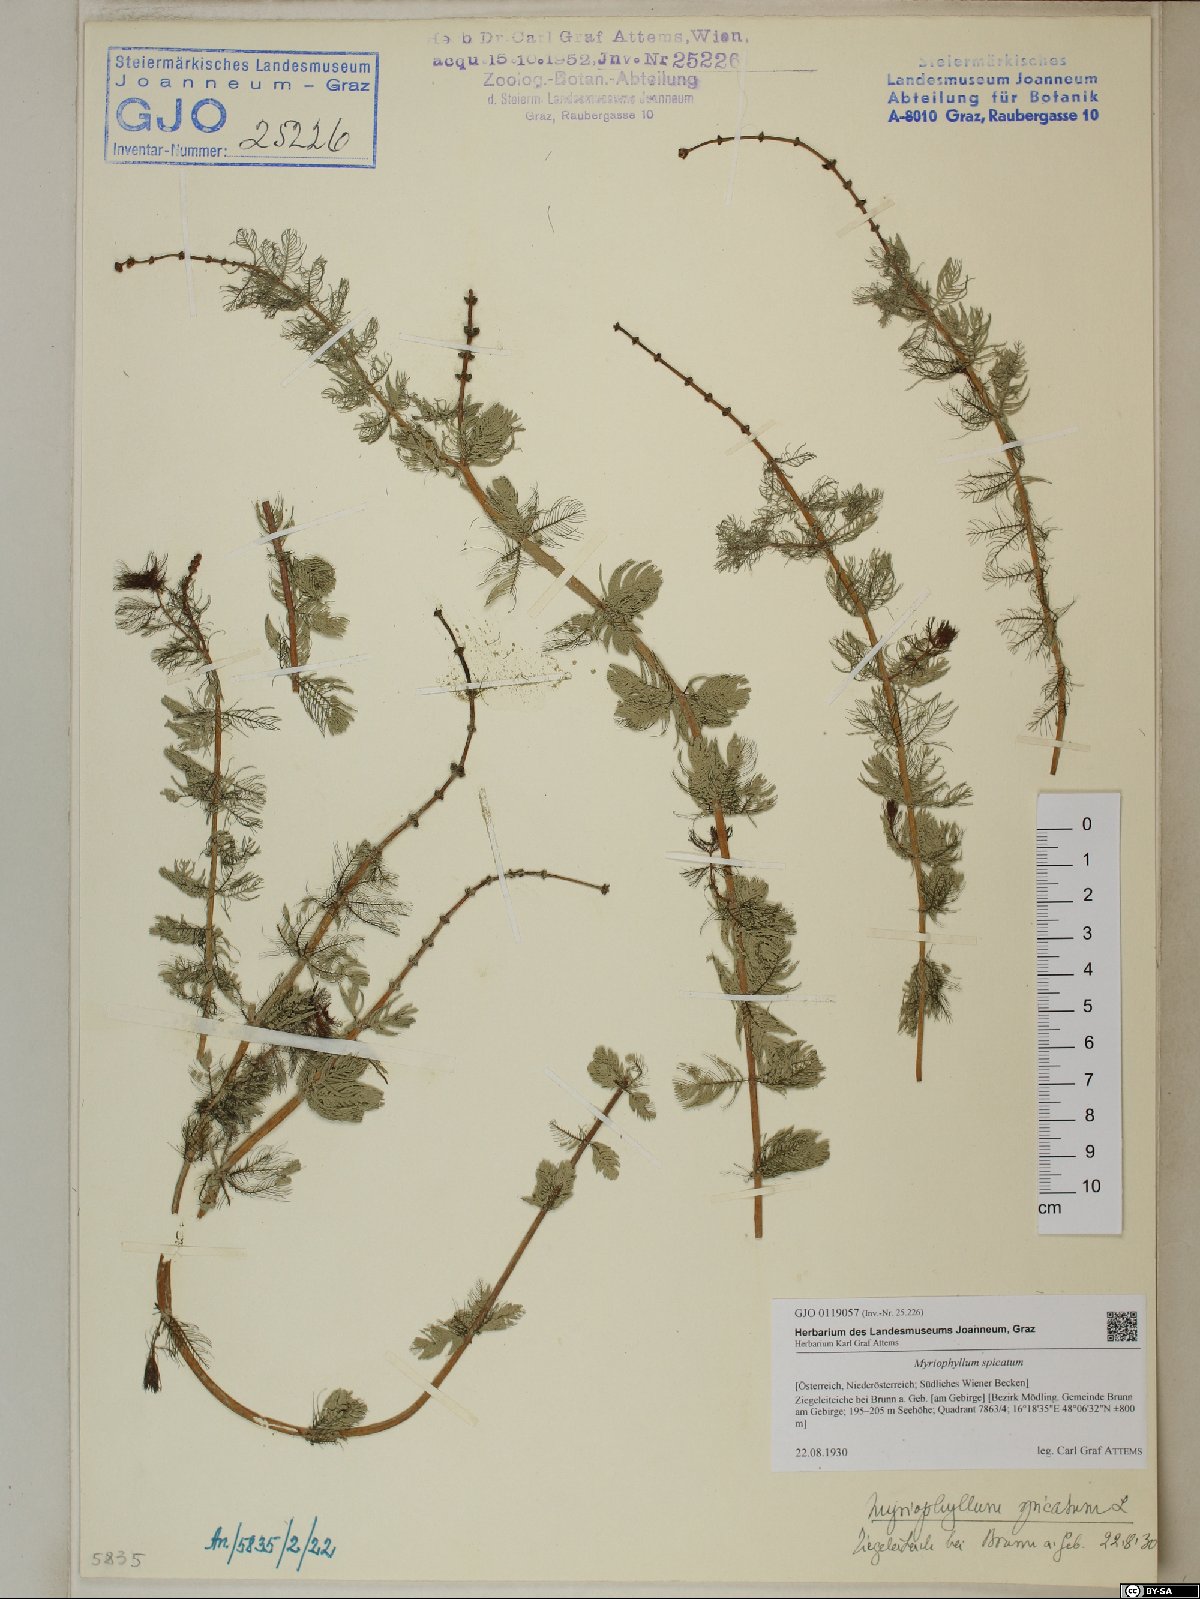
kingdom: Plantae
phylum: Tracheophyta
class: Magnoliopsida
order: Saxifragales
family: Haloragaceae
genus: Myriophyllum
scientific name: Myriophyllum spicatum
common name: Spiked water-milfoil
